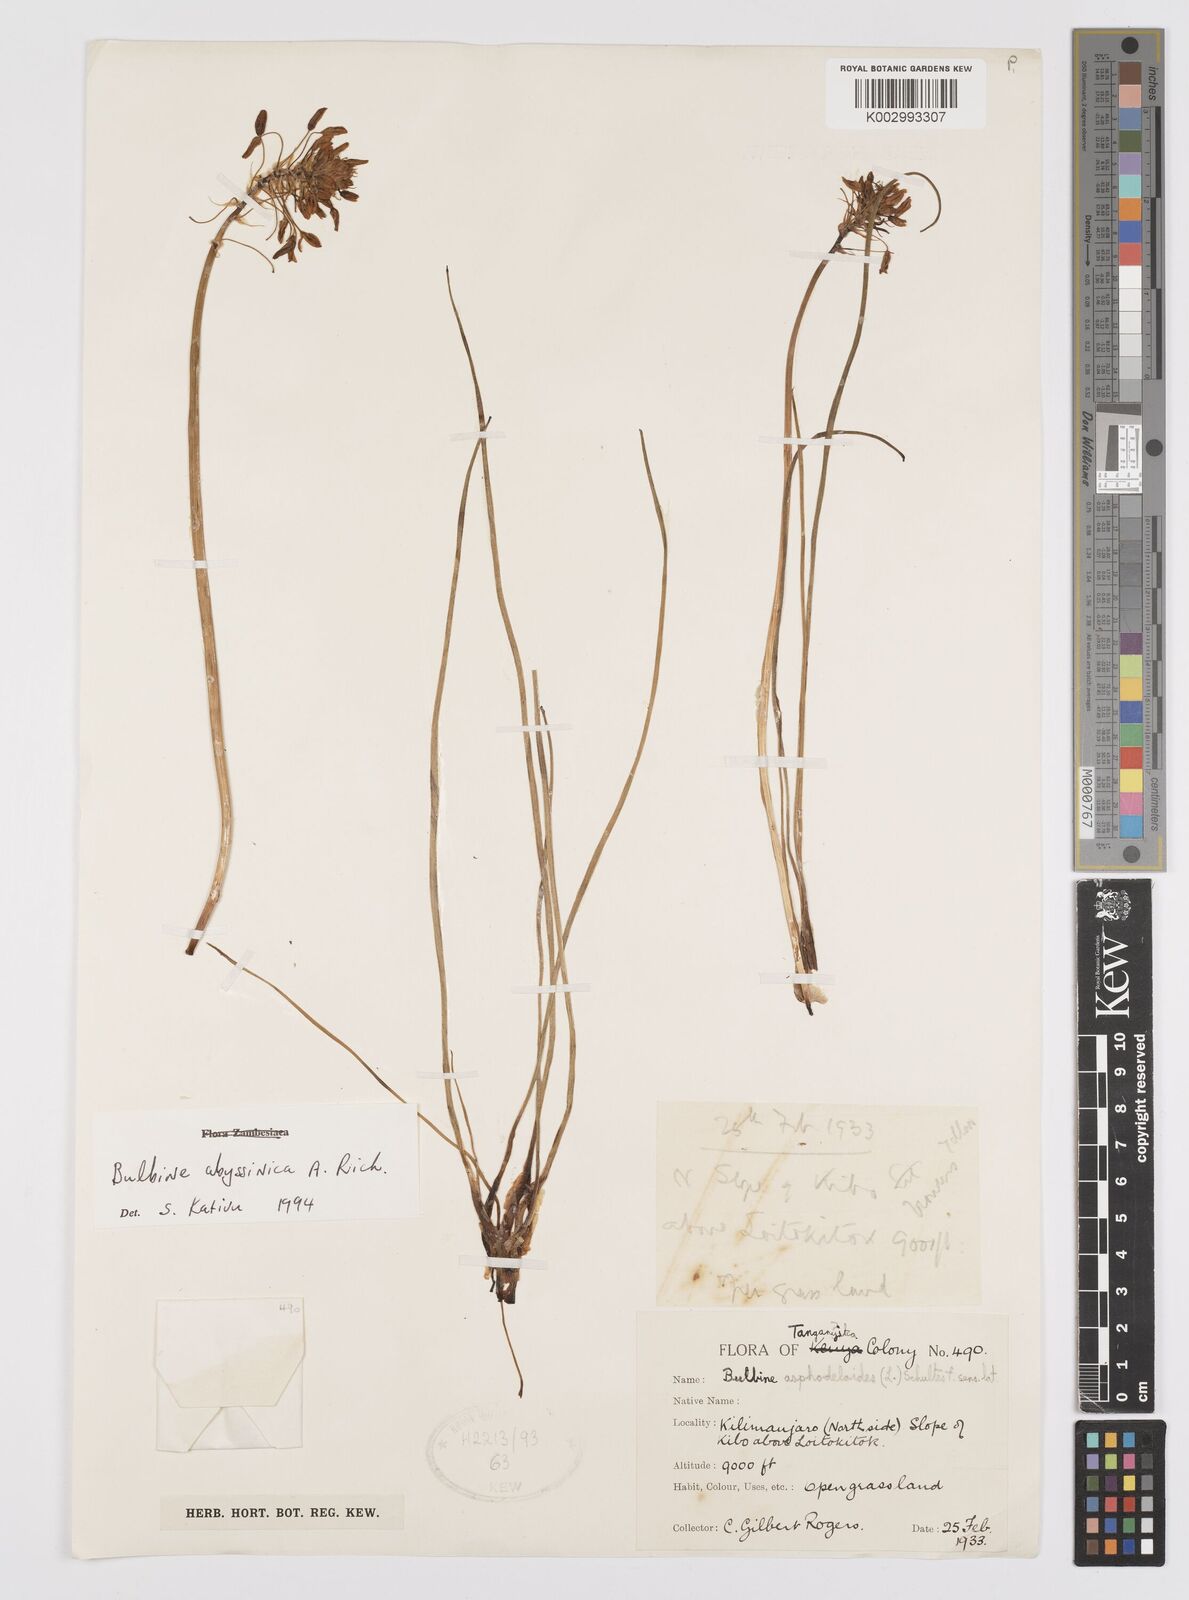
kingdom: Plantae
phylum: Tracheophyta
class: Liliopsida
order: Asparagales
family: Asphodelaceae
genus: Bulbine
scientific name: Bulbine abyssinica
